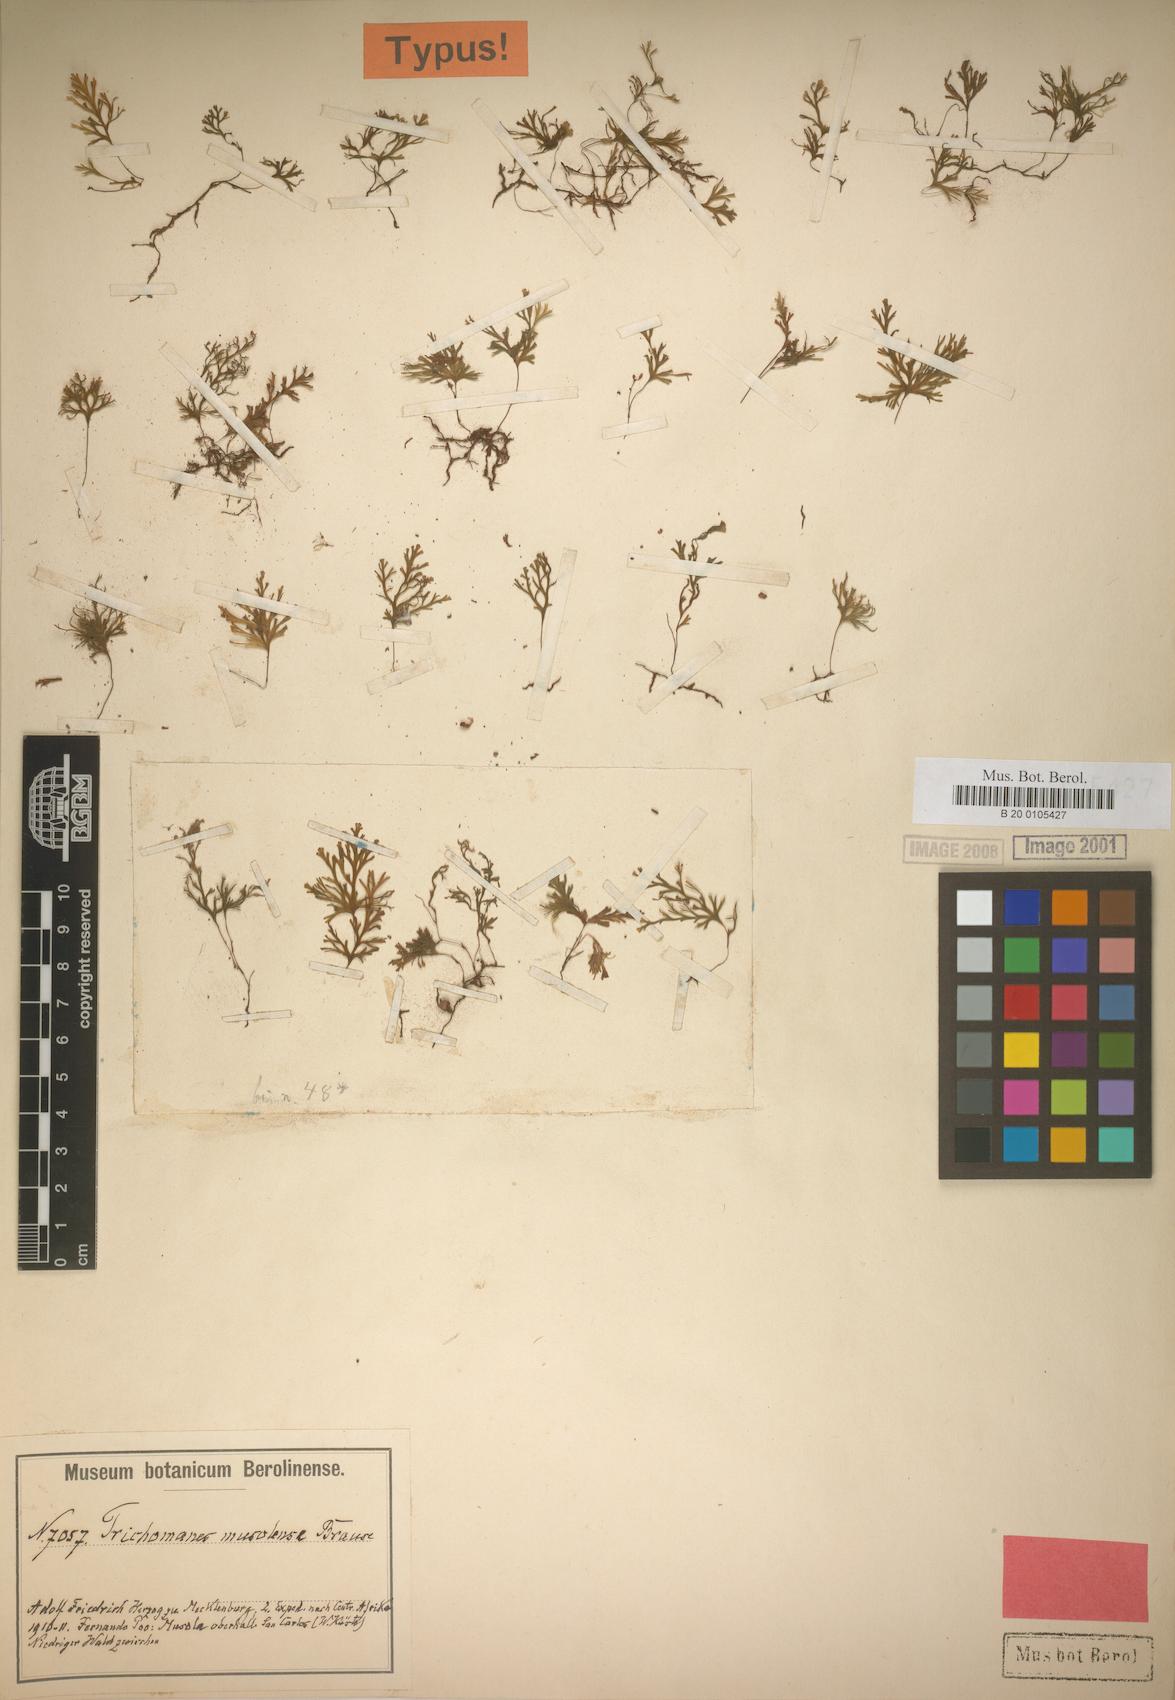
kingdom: Plantae
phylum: Tracheophyta
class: Polypodiopsida
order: Hymenophyllales
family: Hymenophyllaceae
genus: Crepidomanes
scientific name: Crepidomanes parvulum
